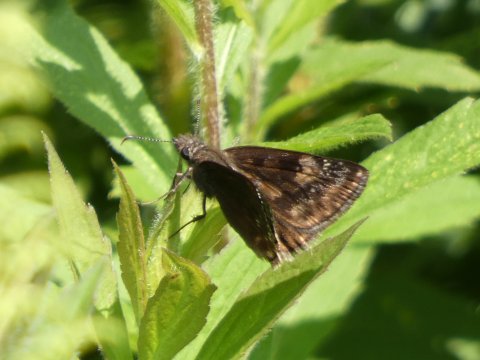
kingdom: Animalia
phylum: Arthropoda
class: Insecta
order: Lepidoptera
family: Hesperiidae
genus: Gesta
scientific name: Gesta
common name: Horace's Duskywing
